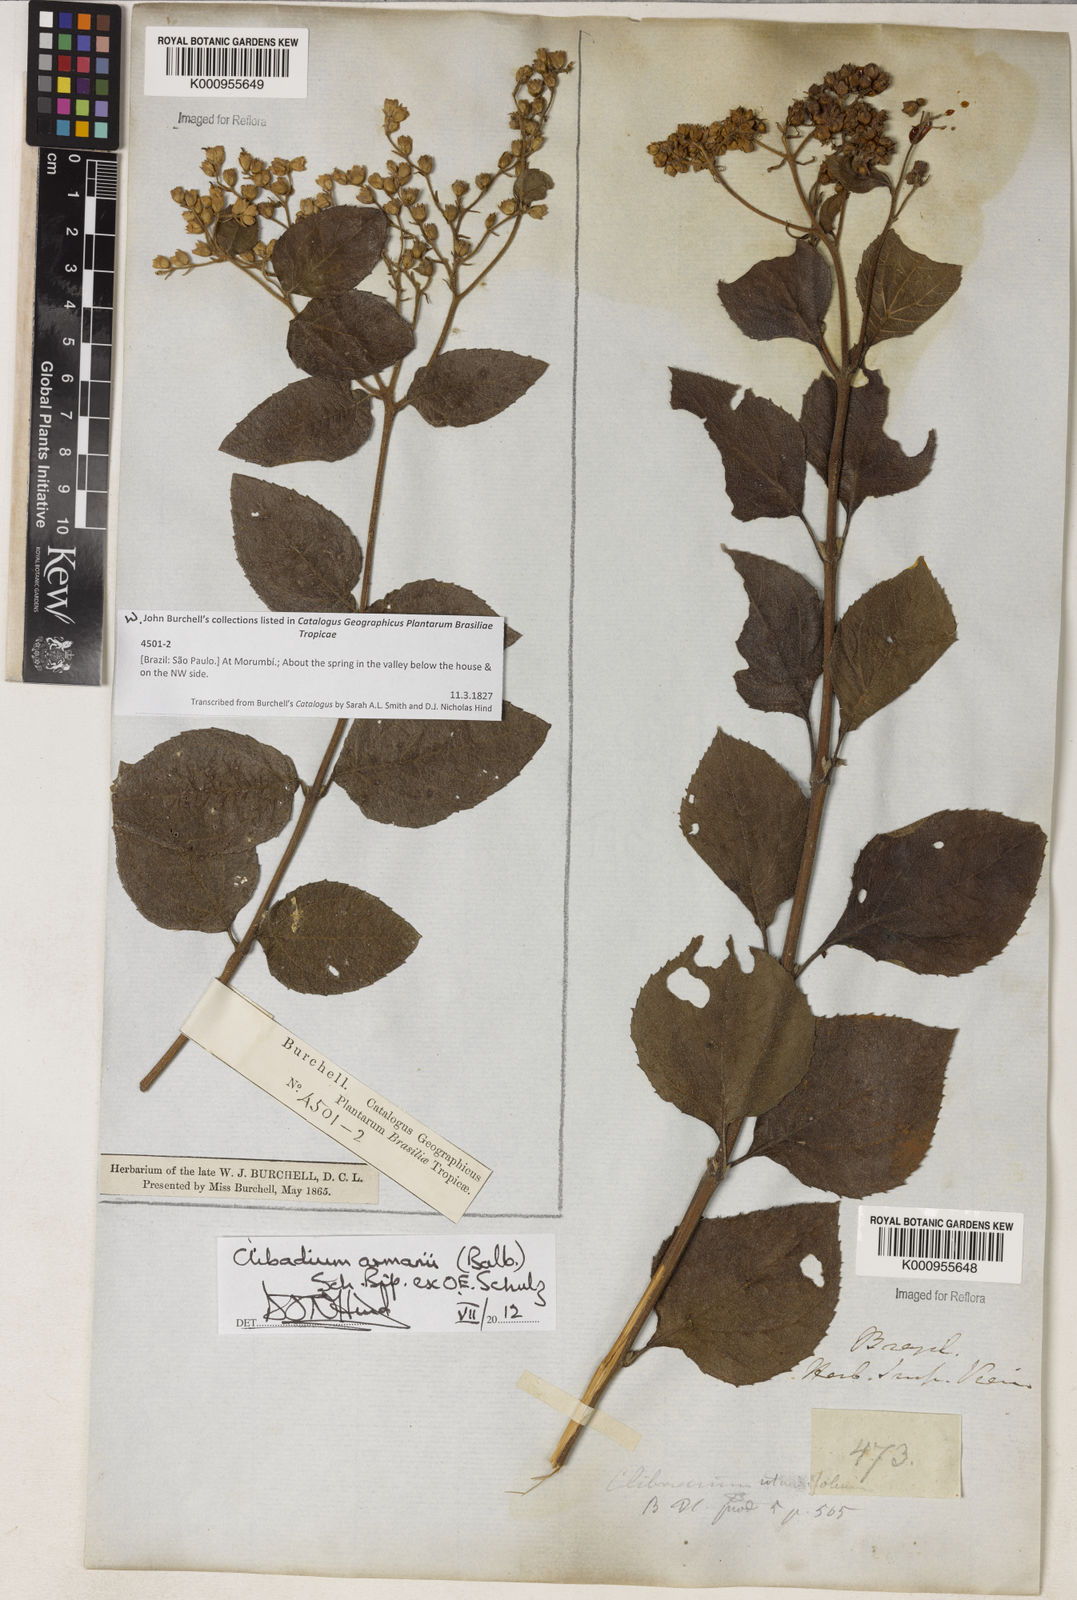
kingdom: Plantae
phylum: Tracheophyta
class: Magnoliopsida
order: Asterales
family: Asteraceae
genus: Clibadium
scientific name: Clibadium armanii
